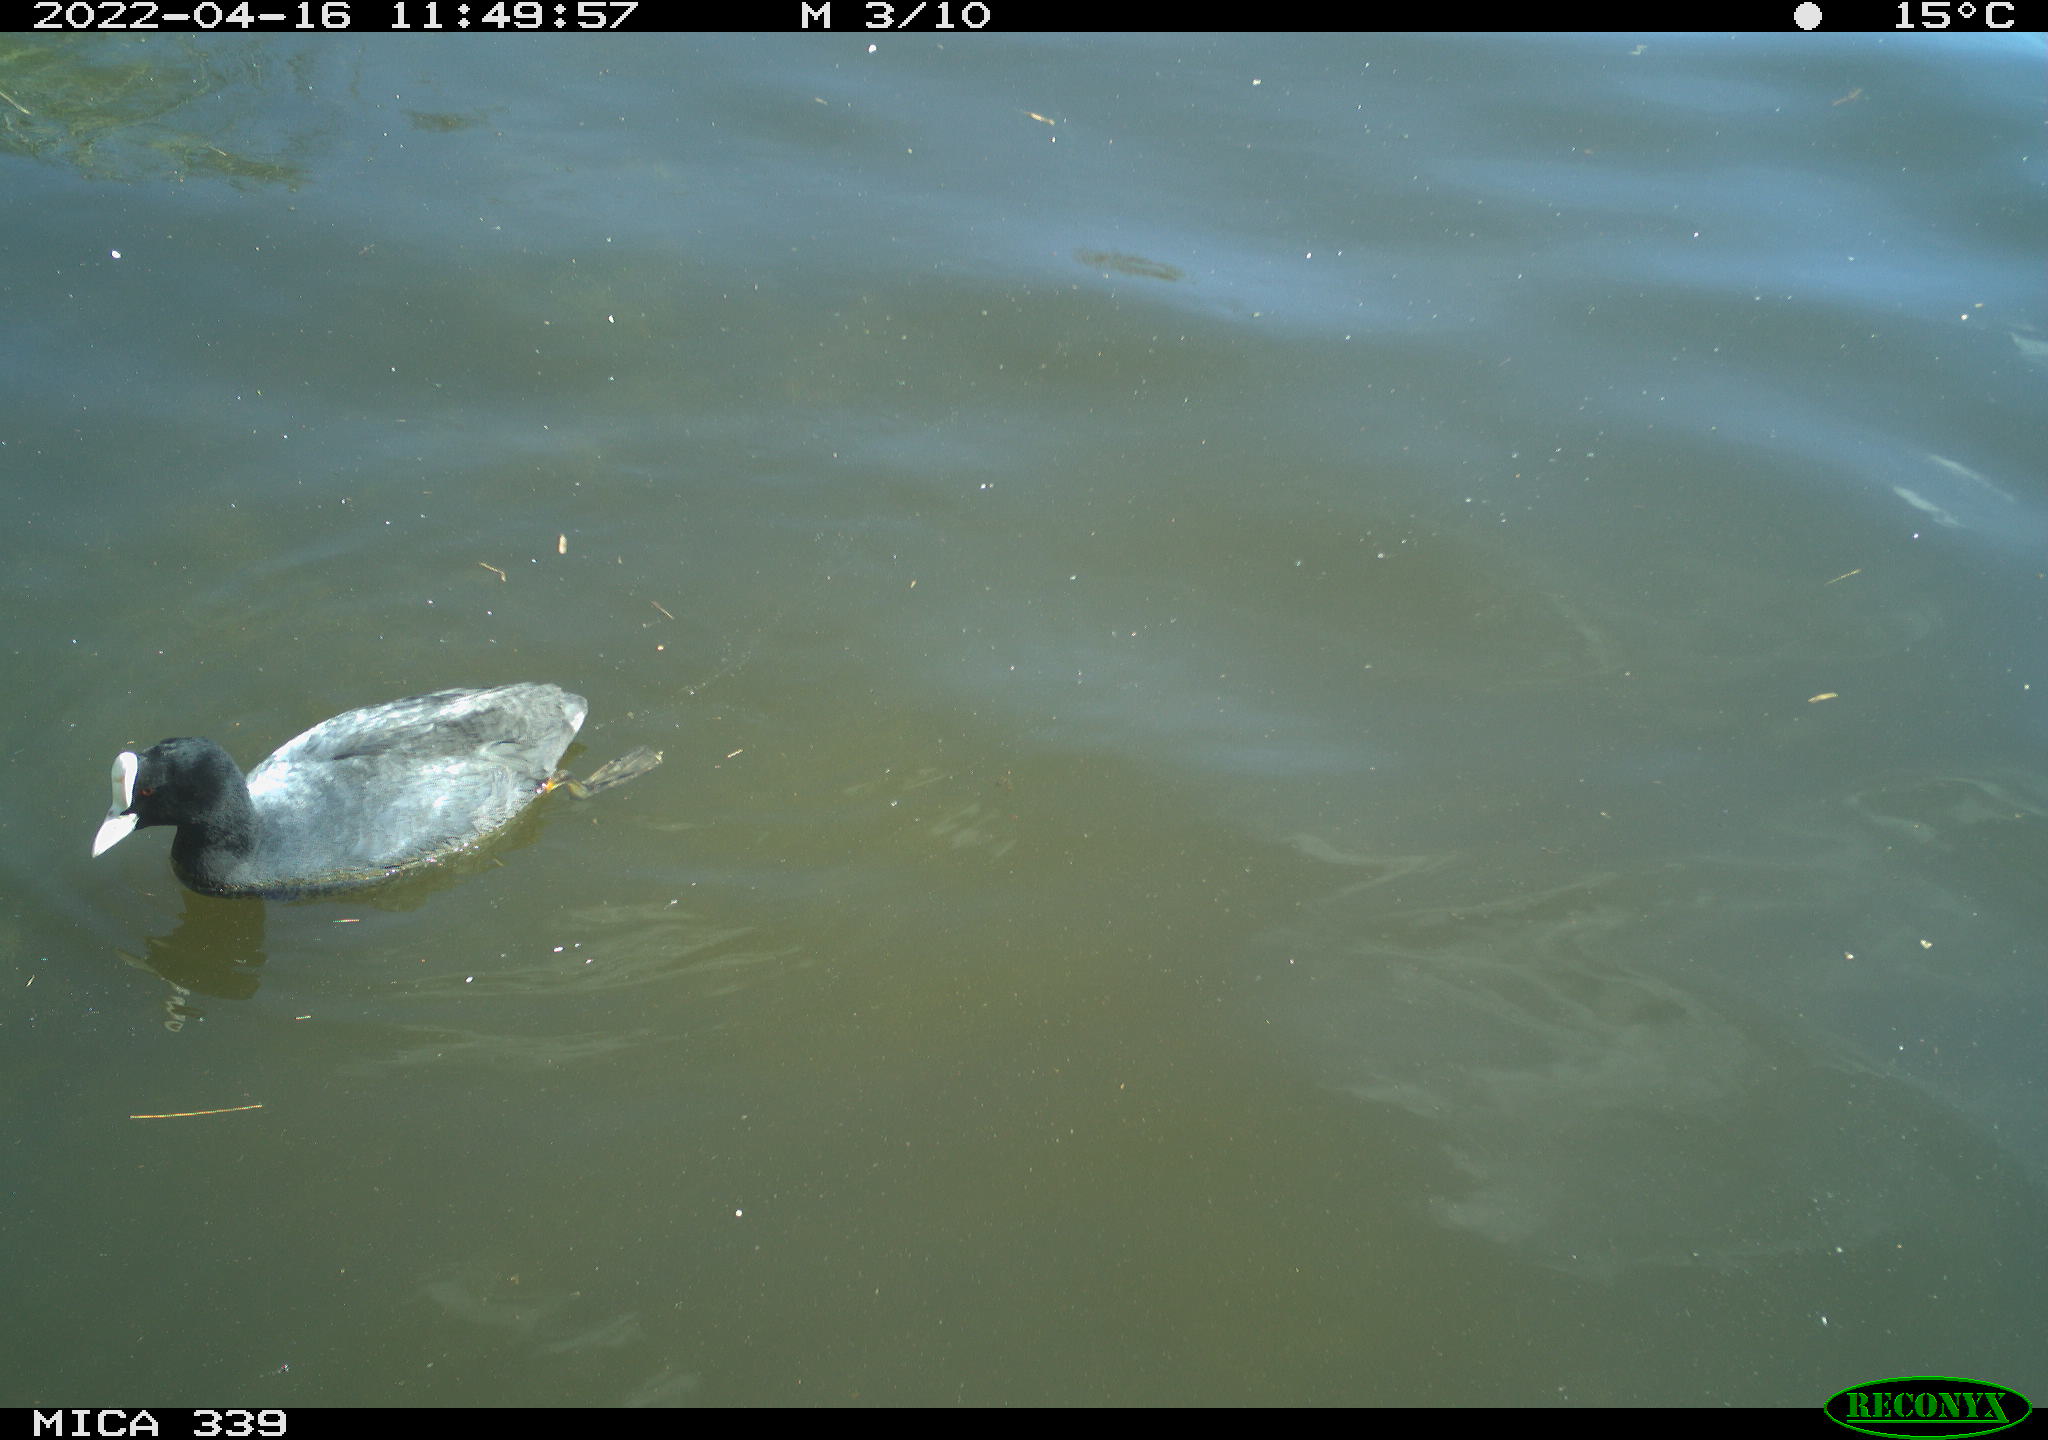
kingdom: Animalia
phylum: Chordata
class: Aves
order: Gruiformes
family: Rallidae
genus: Fulica
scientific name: Fulica atra
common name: Eurasian coot
